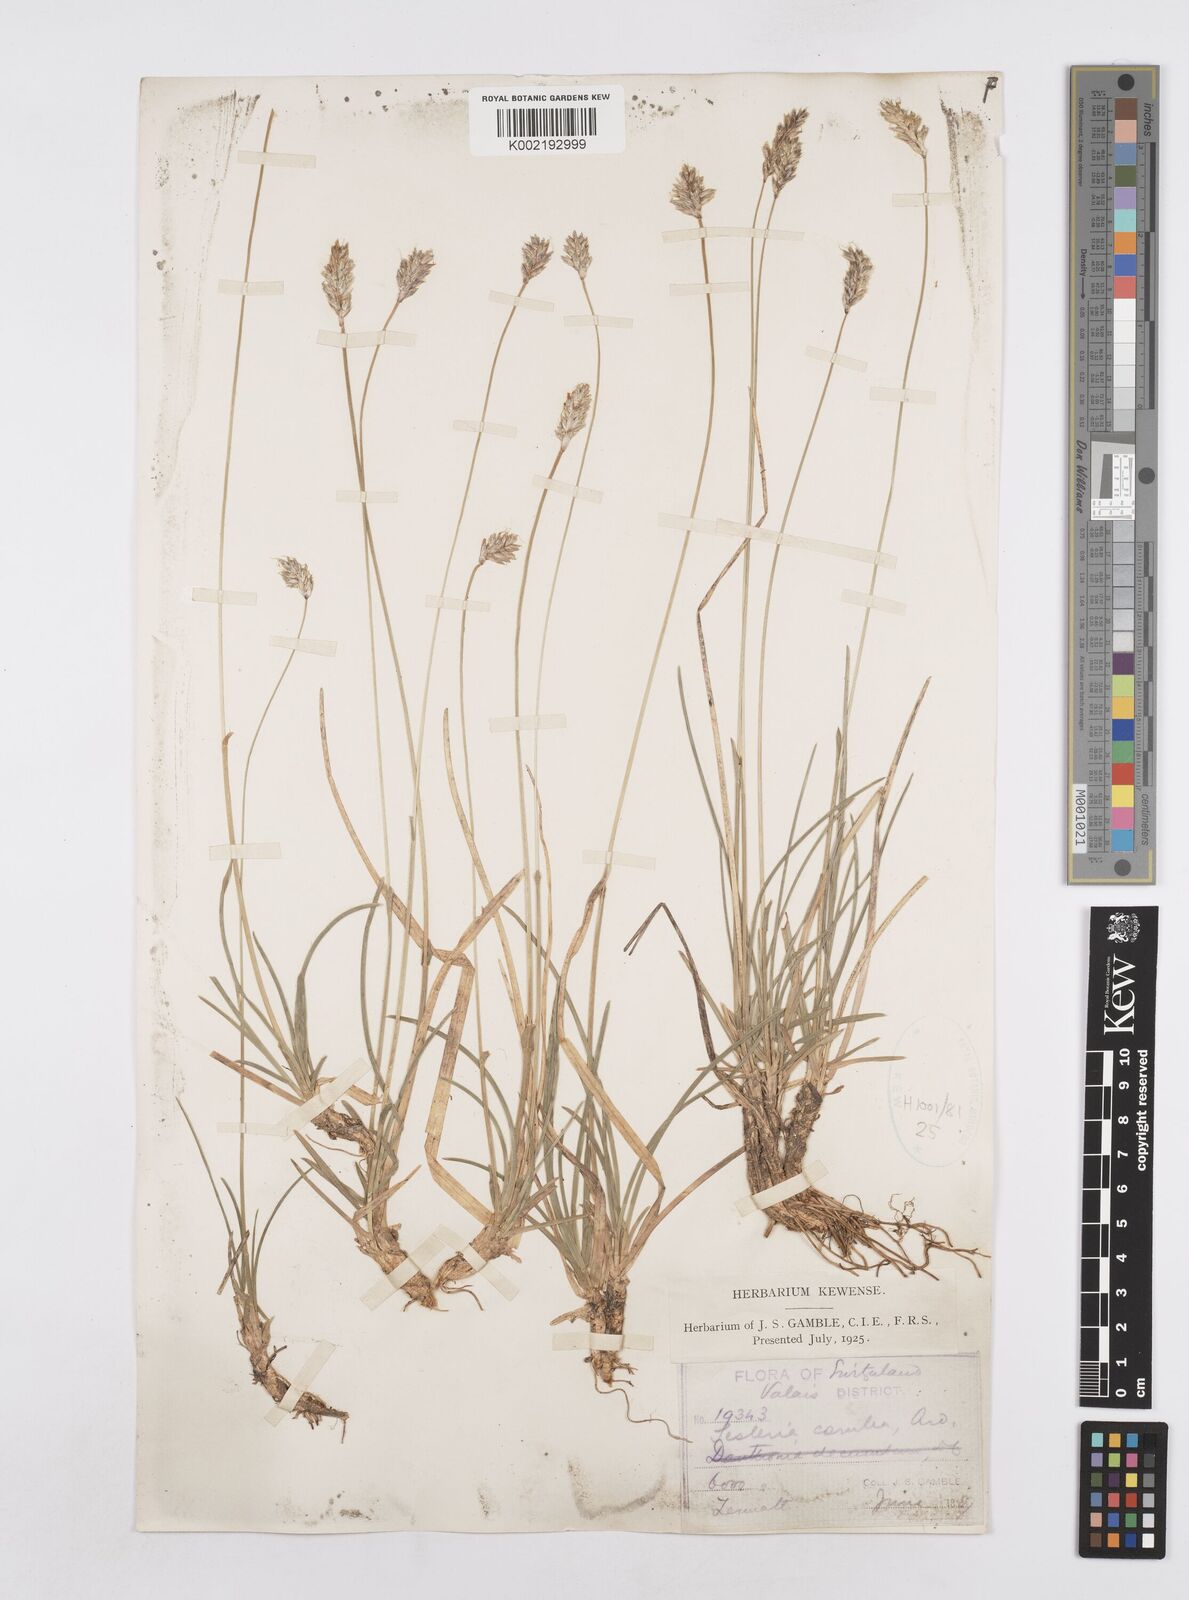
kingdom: Plantae
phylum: Tracheophyta
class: Liliopsida
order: Poales
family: Poaceae
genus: Sesleria
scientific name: Sesleria caerulea
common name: Blue moor-grass
